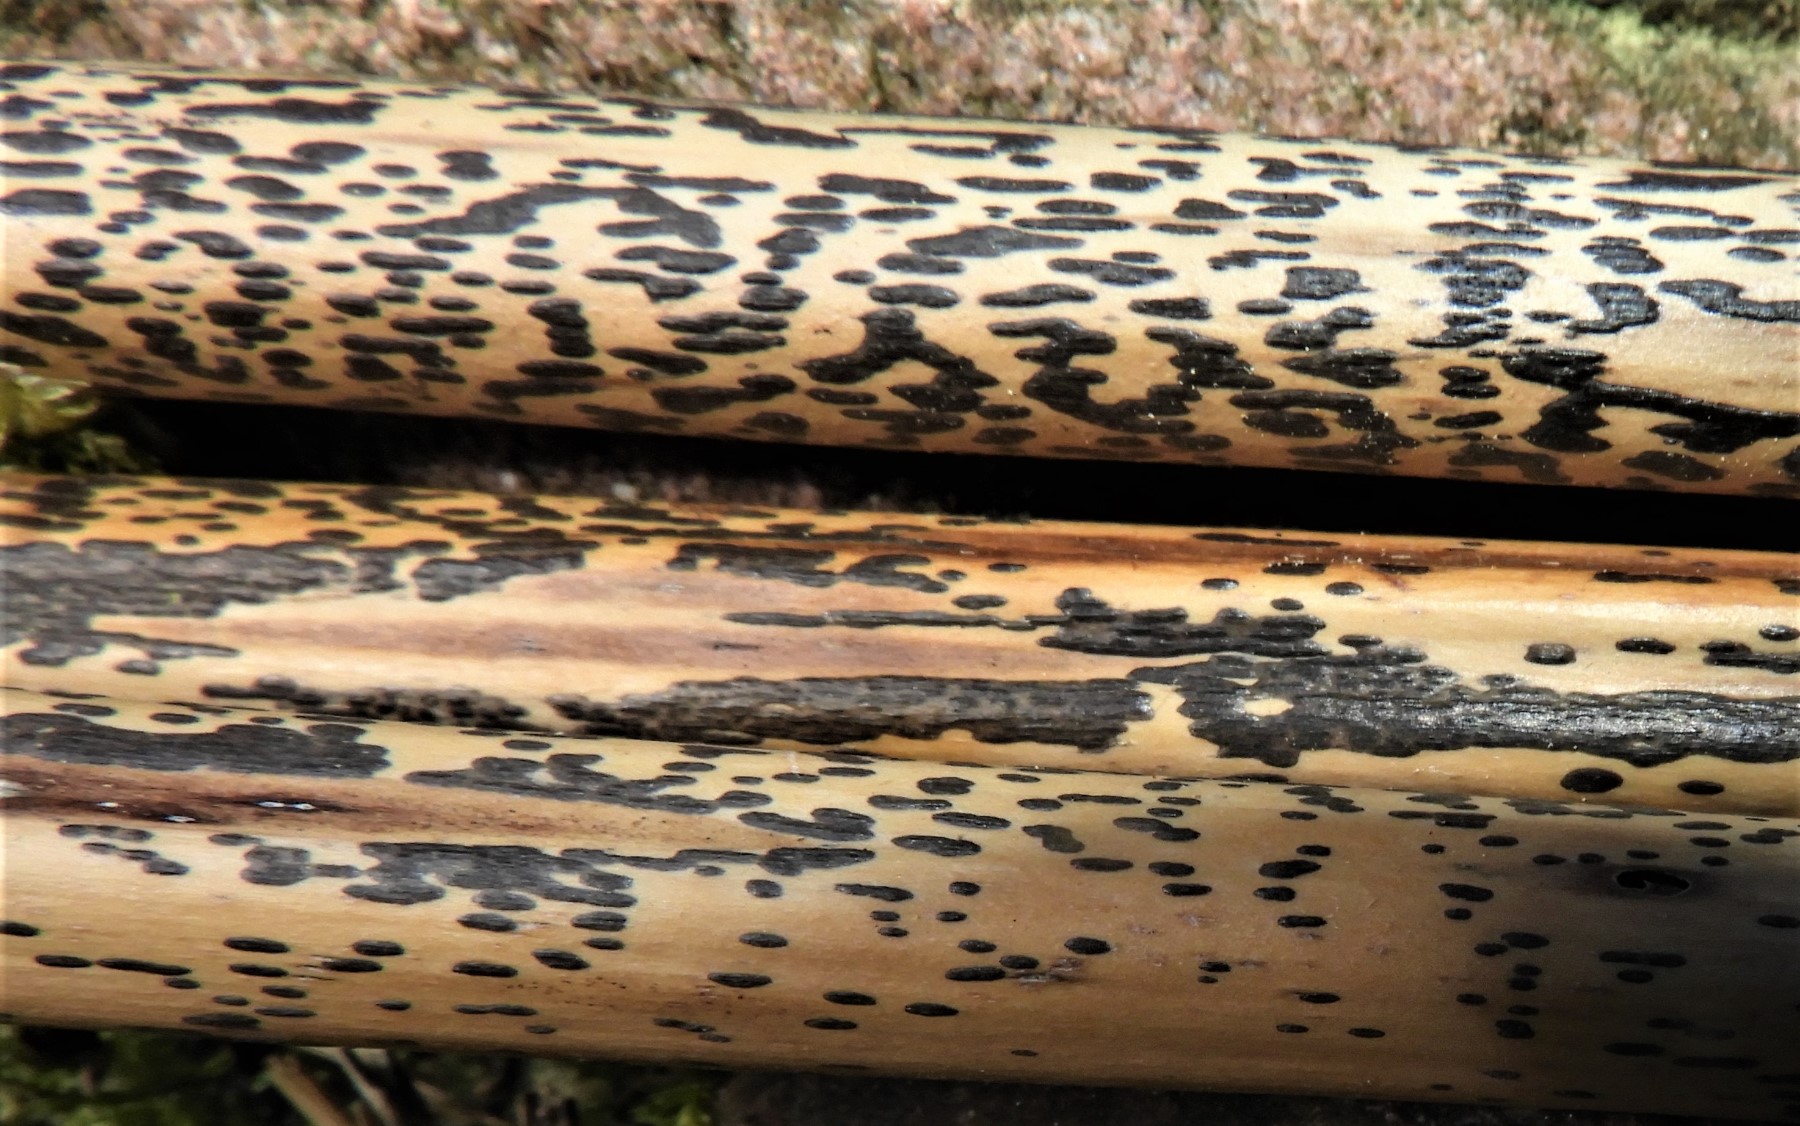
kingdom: Fungi
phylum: Ascomycota
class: Dothideomycetes
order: Pleosporales
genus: Rhopographus
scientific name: Rhopographus filicinus
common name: Bracken map
